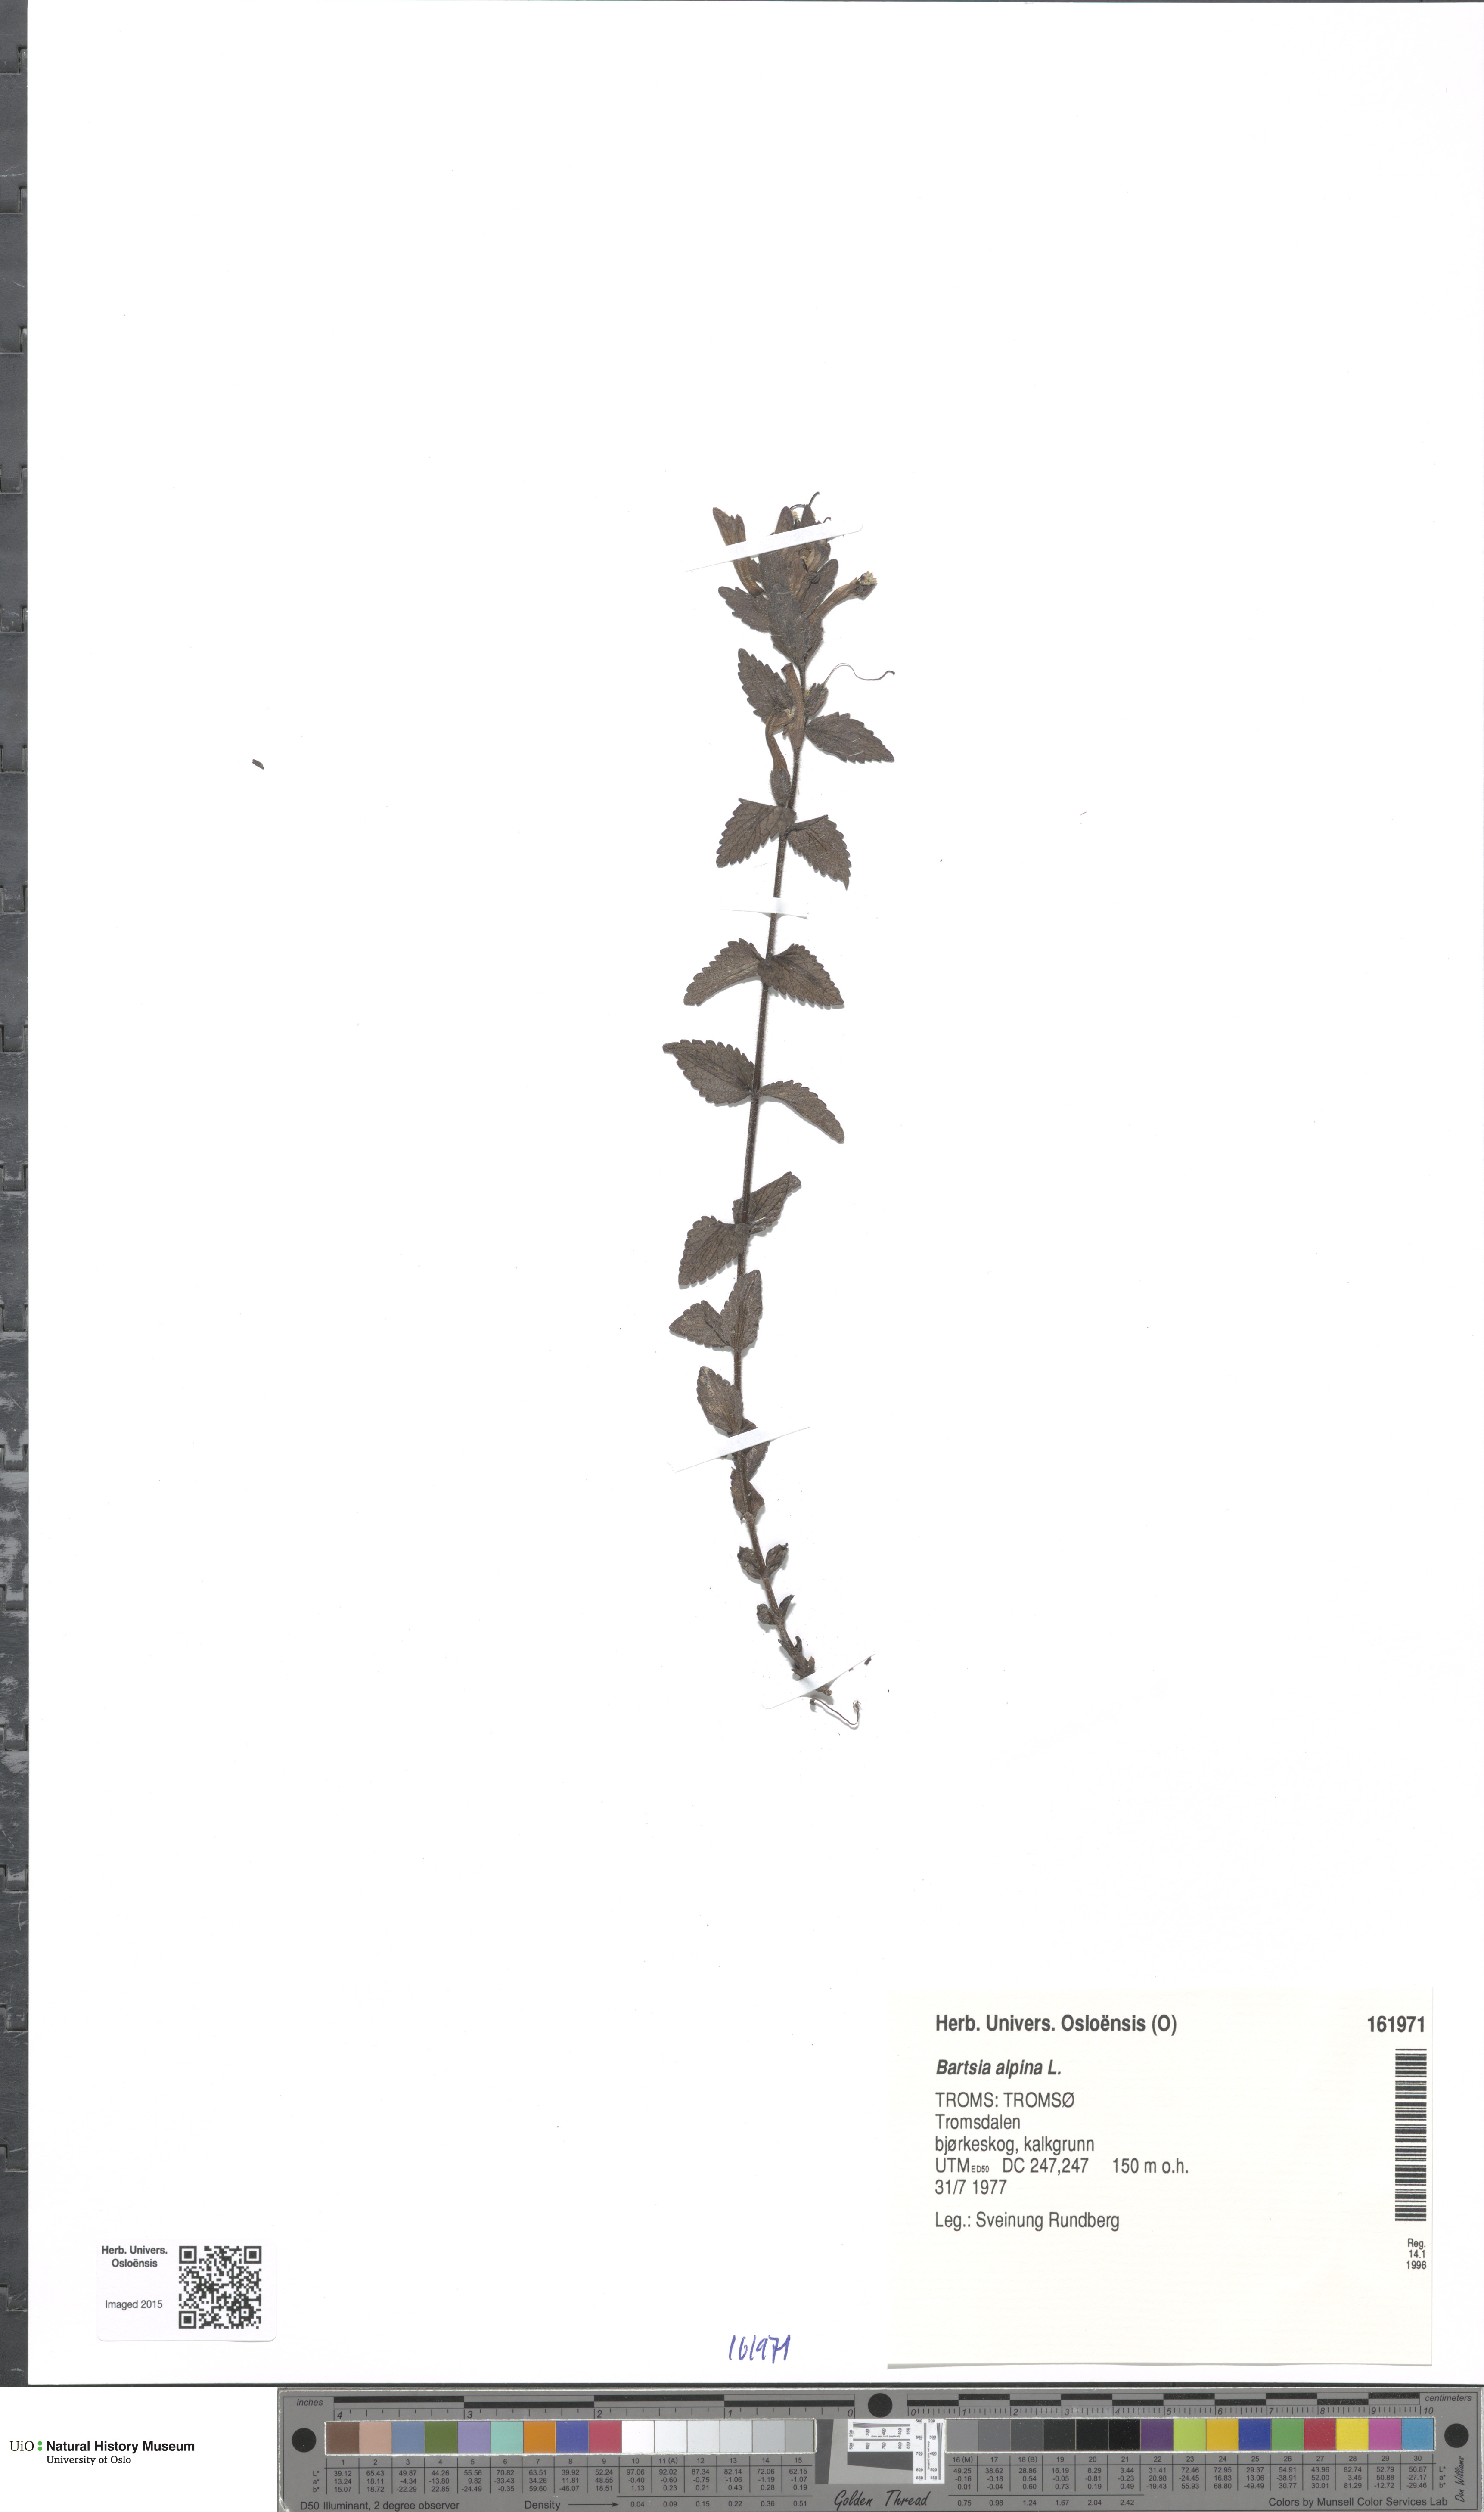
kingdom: Plantae
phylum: Tracheophyta
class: Magnoliopsida
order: Lamiales
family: Orobanchaceae
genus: Bartsia
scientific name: Bartsia alpina
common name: Alpine bartsia
